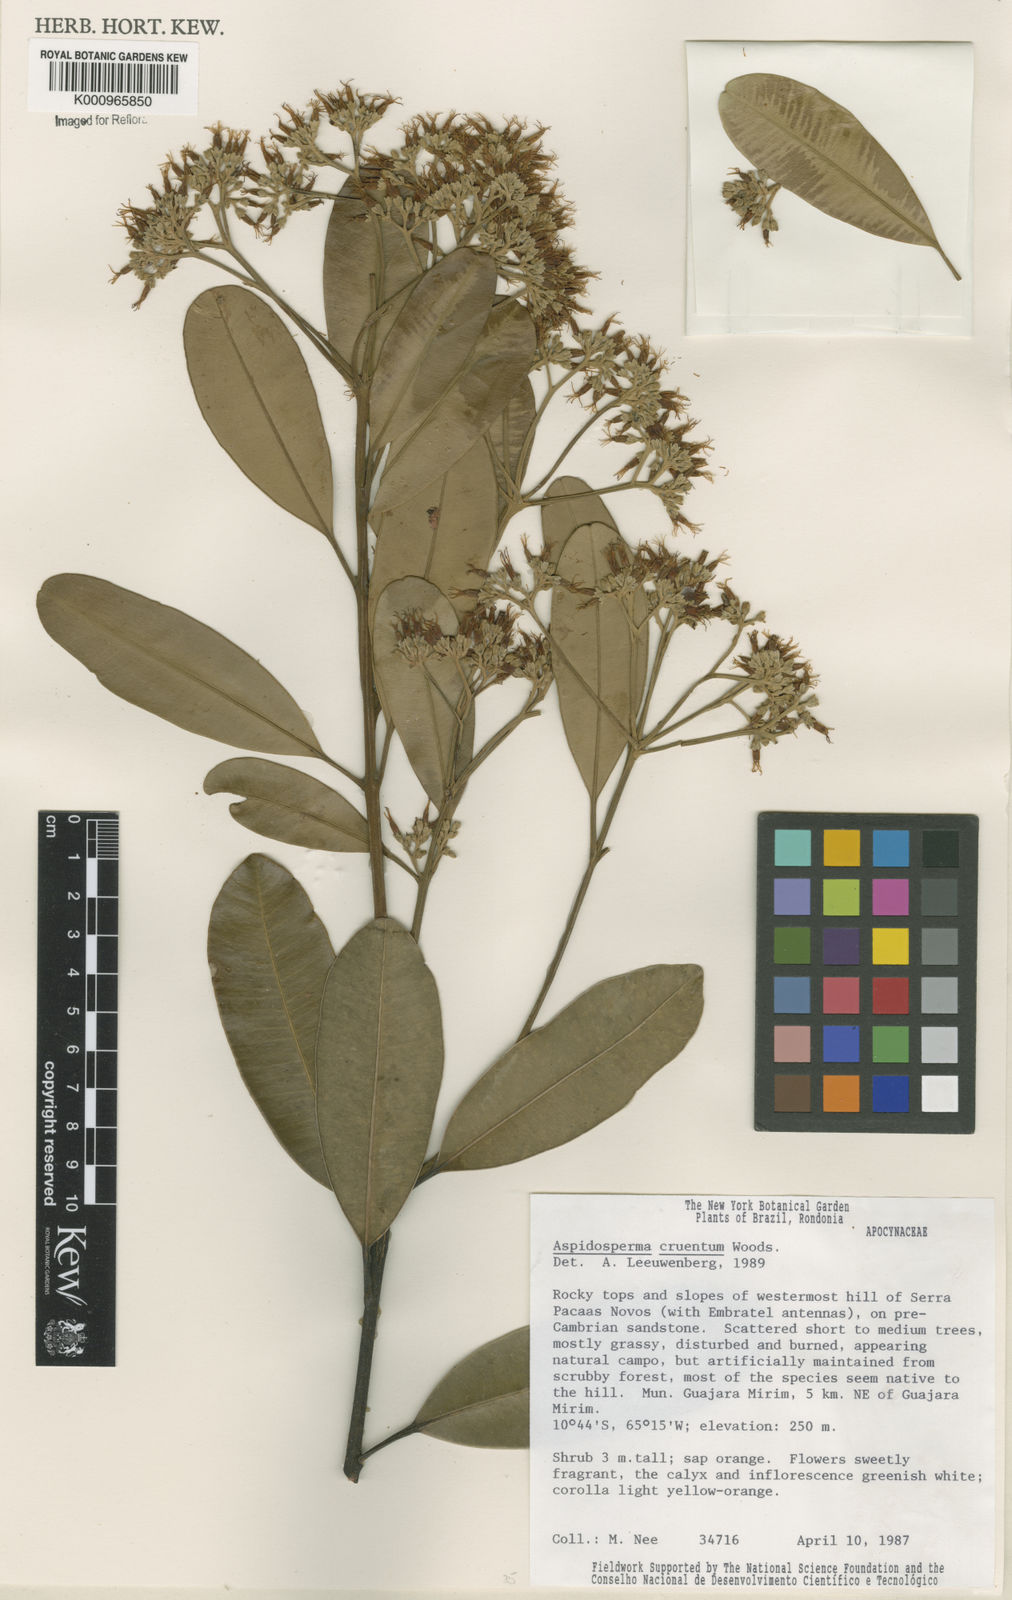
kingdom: Plantae
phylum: Tracheophyta
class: Magnoliopsida
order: Gentianales
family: Apocynaceae
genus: Aspidosperma
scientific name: Aspidosperma
